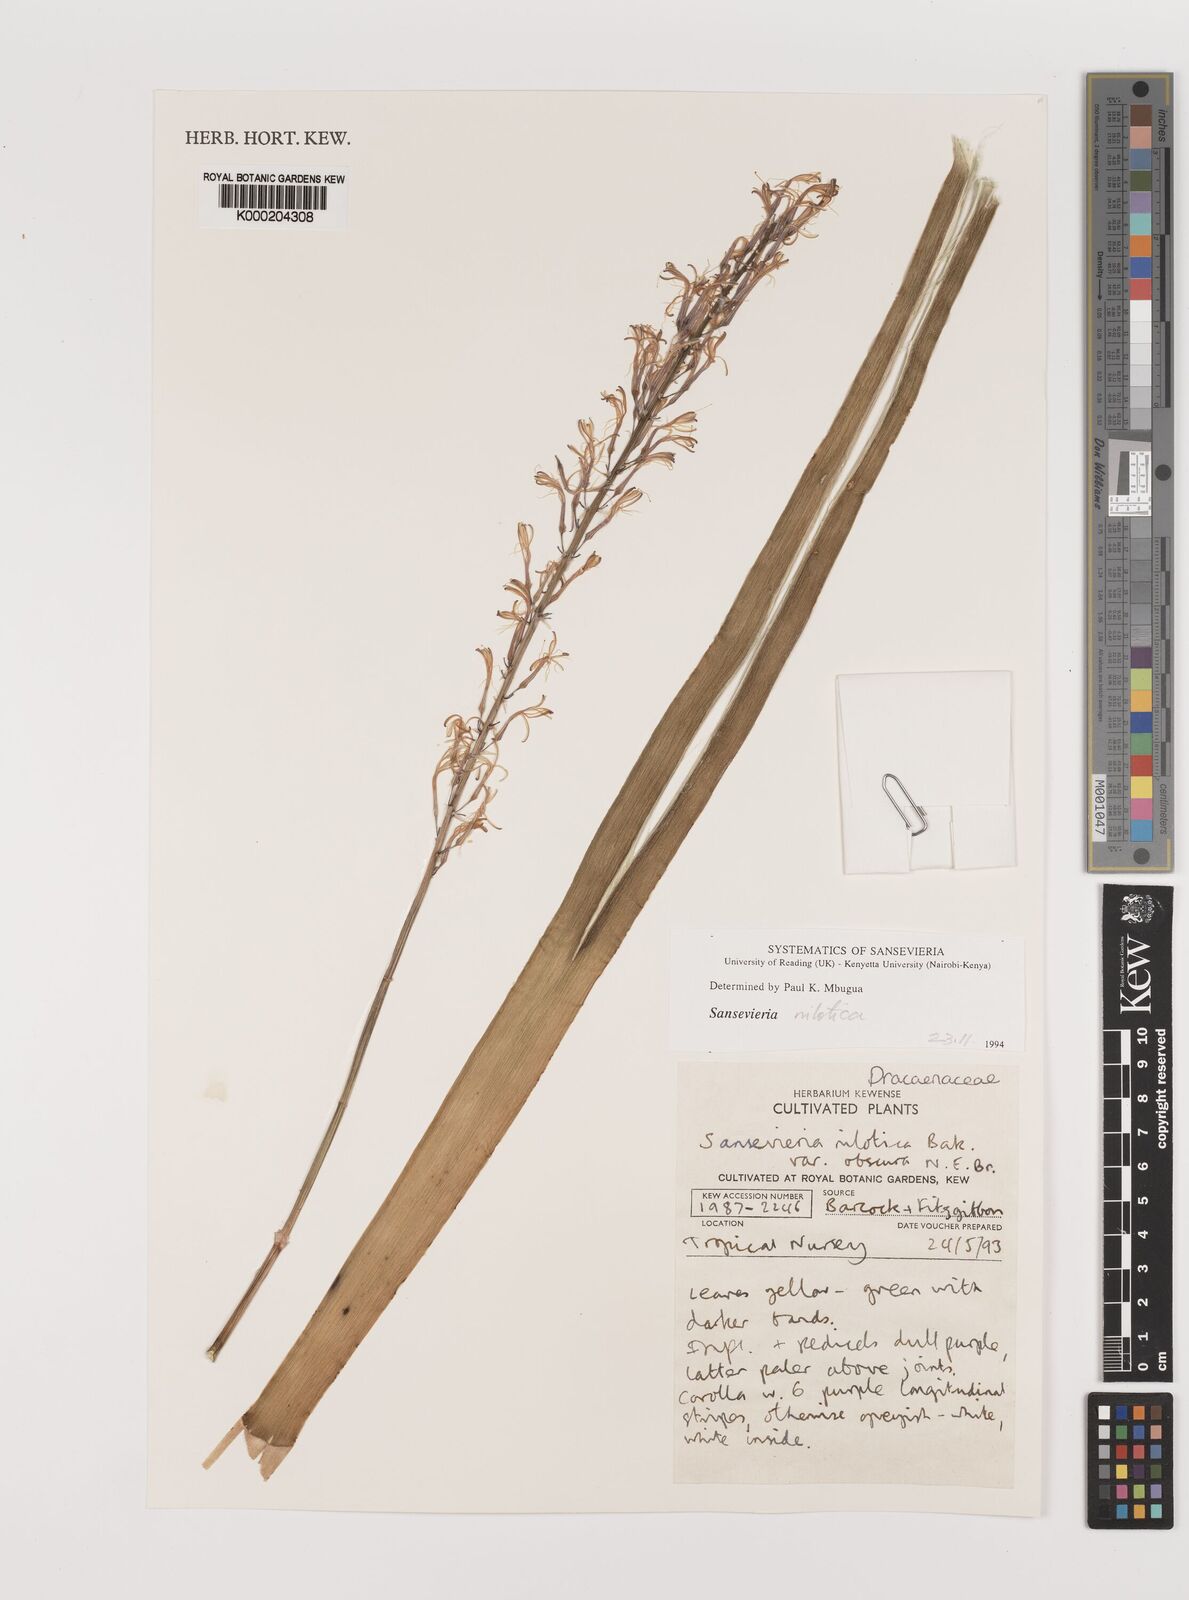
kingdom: Plantae
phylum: Tracheophyta
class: Liliopsida
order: Asparagales
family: Asparagaceae
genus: Dracaena
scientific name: Dracaena nilotica
